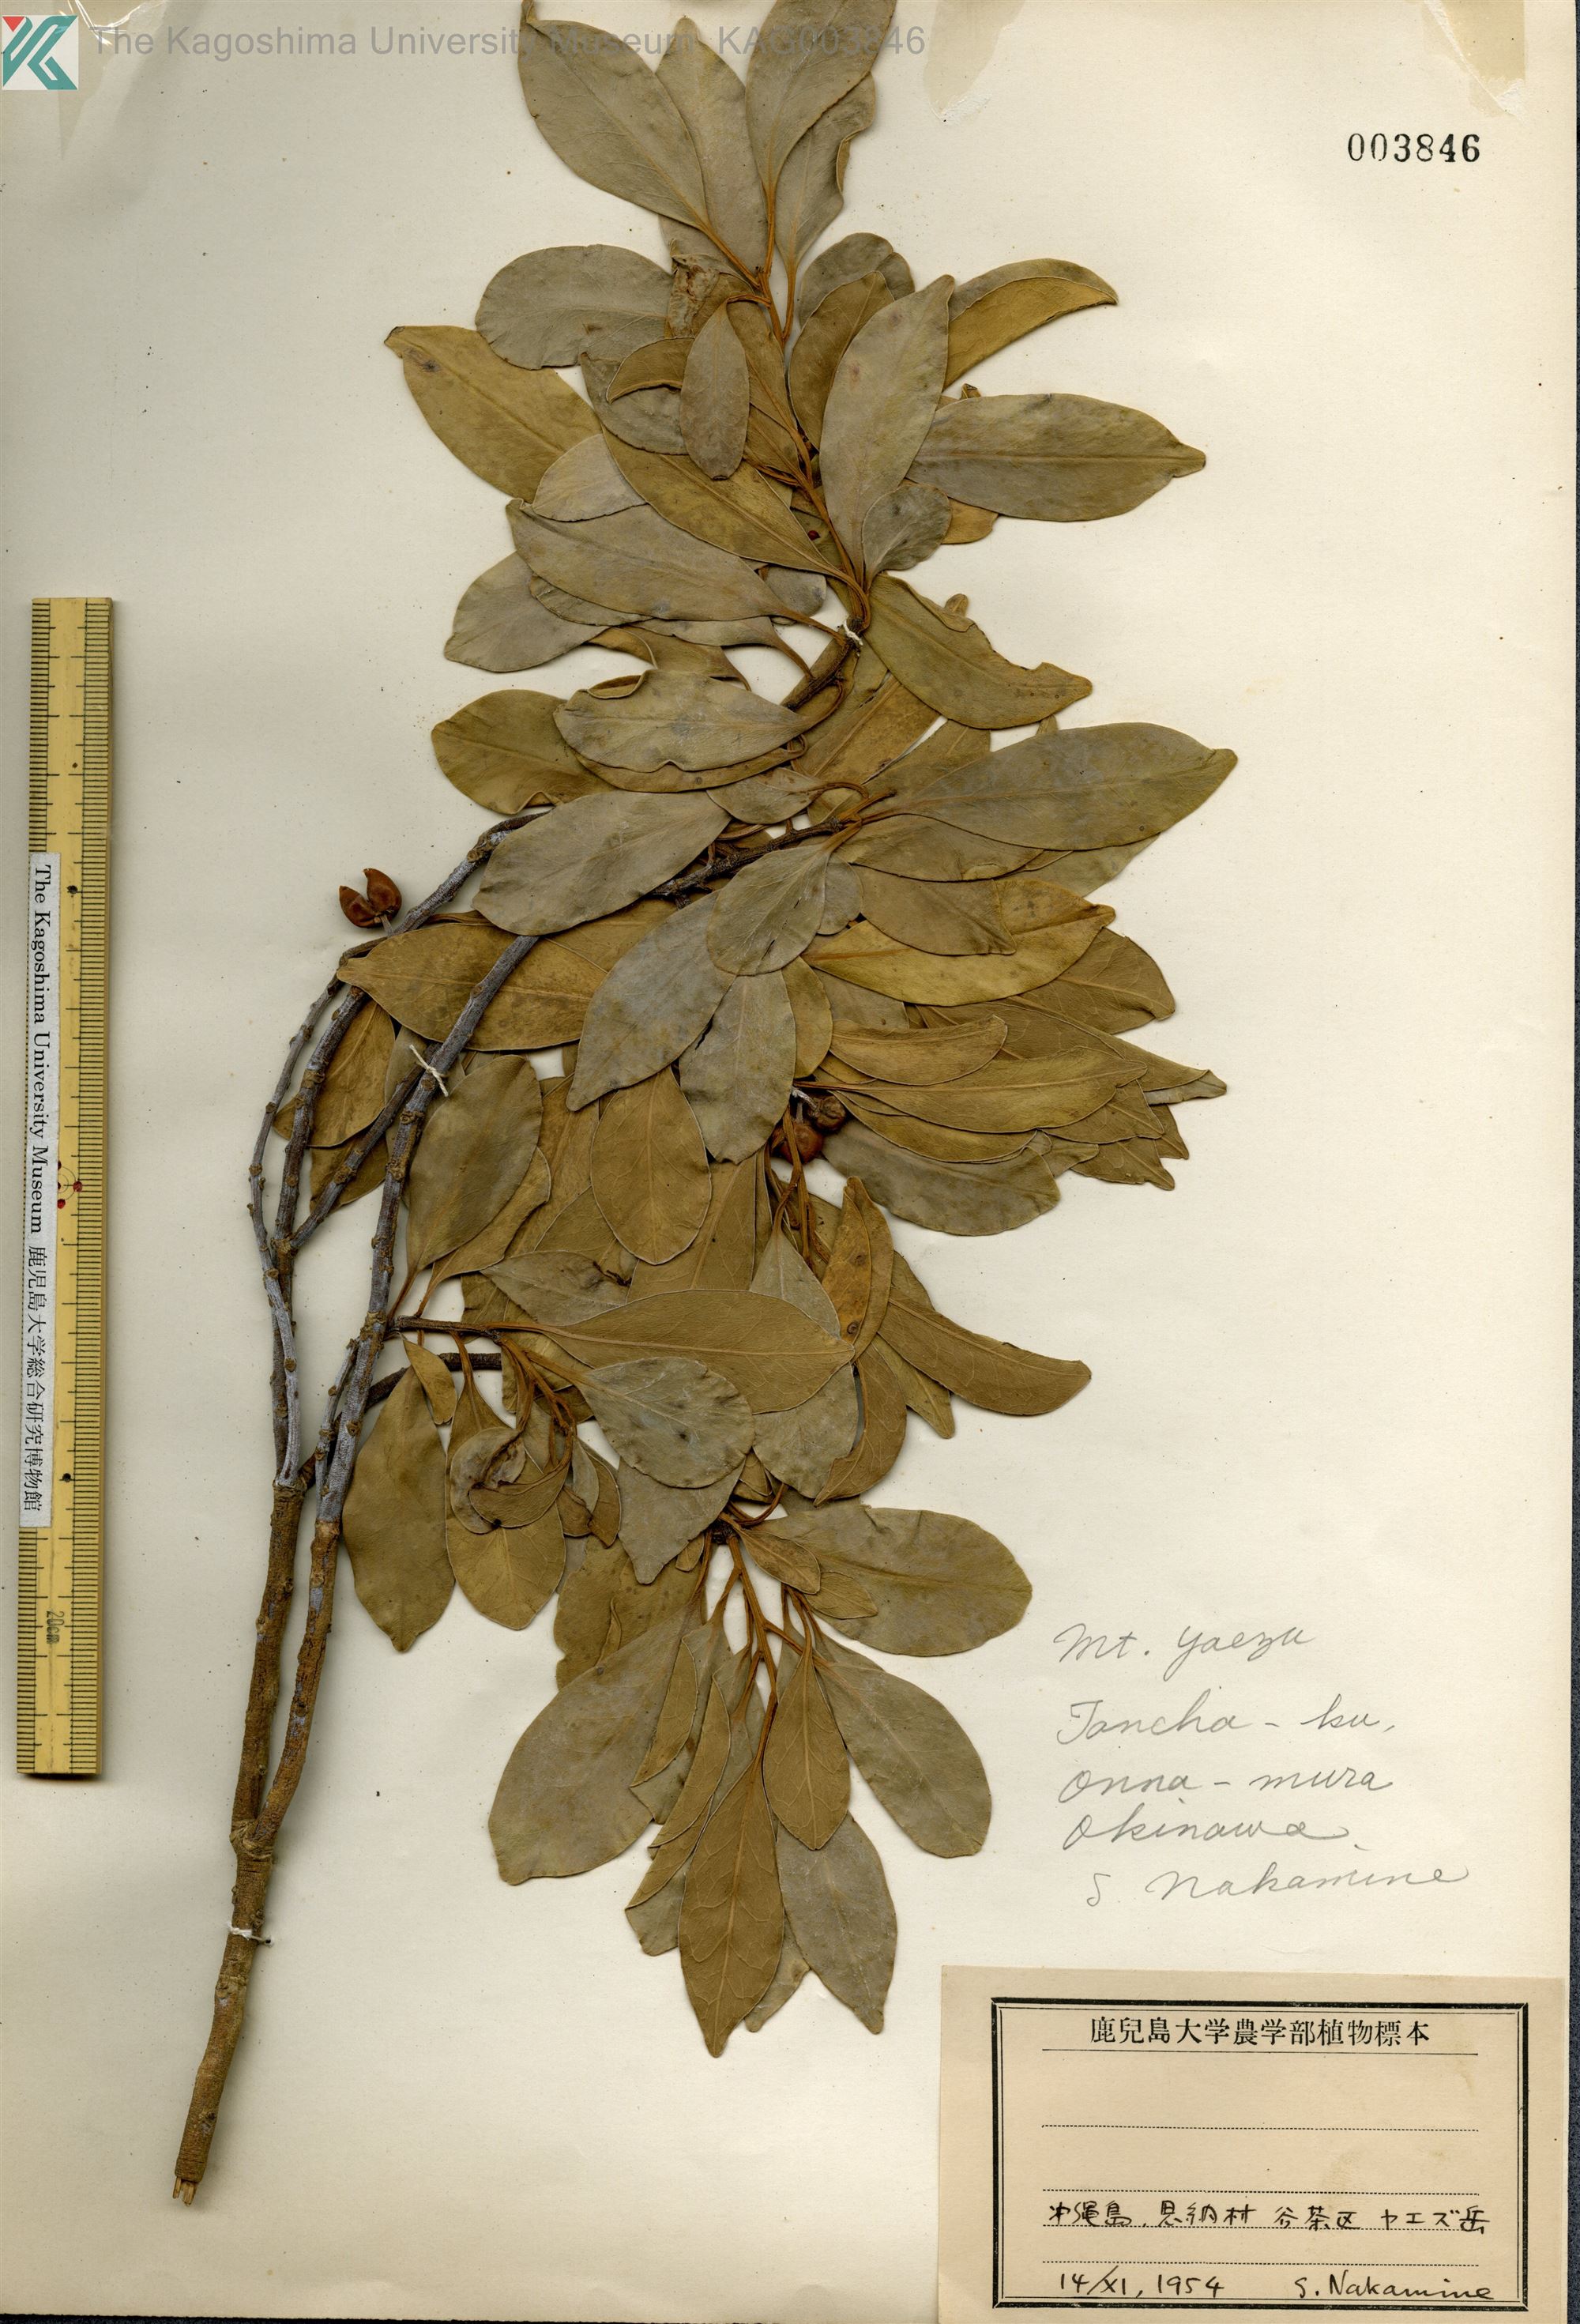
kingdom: Plantae
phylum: Tracheophyta
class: Magnoliopsida
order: Aquifoliales
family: Aquifoliaceae
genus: Ilex
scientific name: Ilex integra
